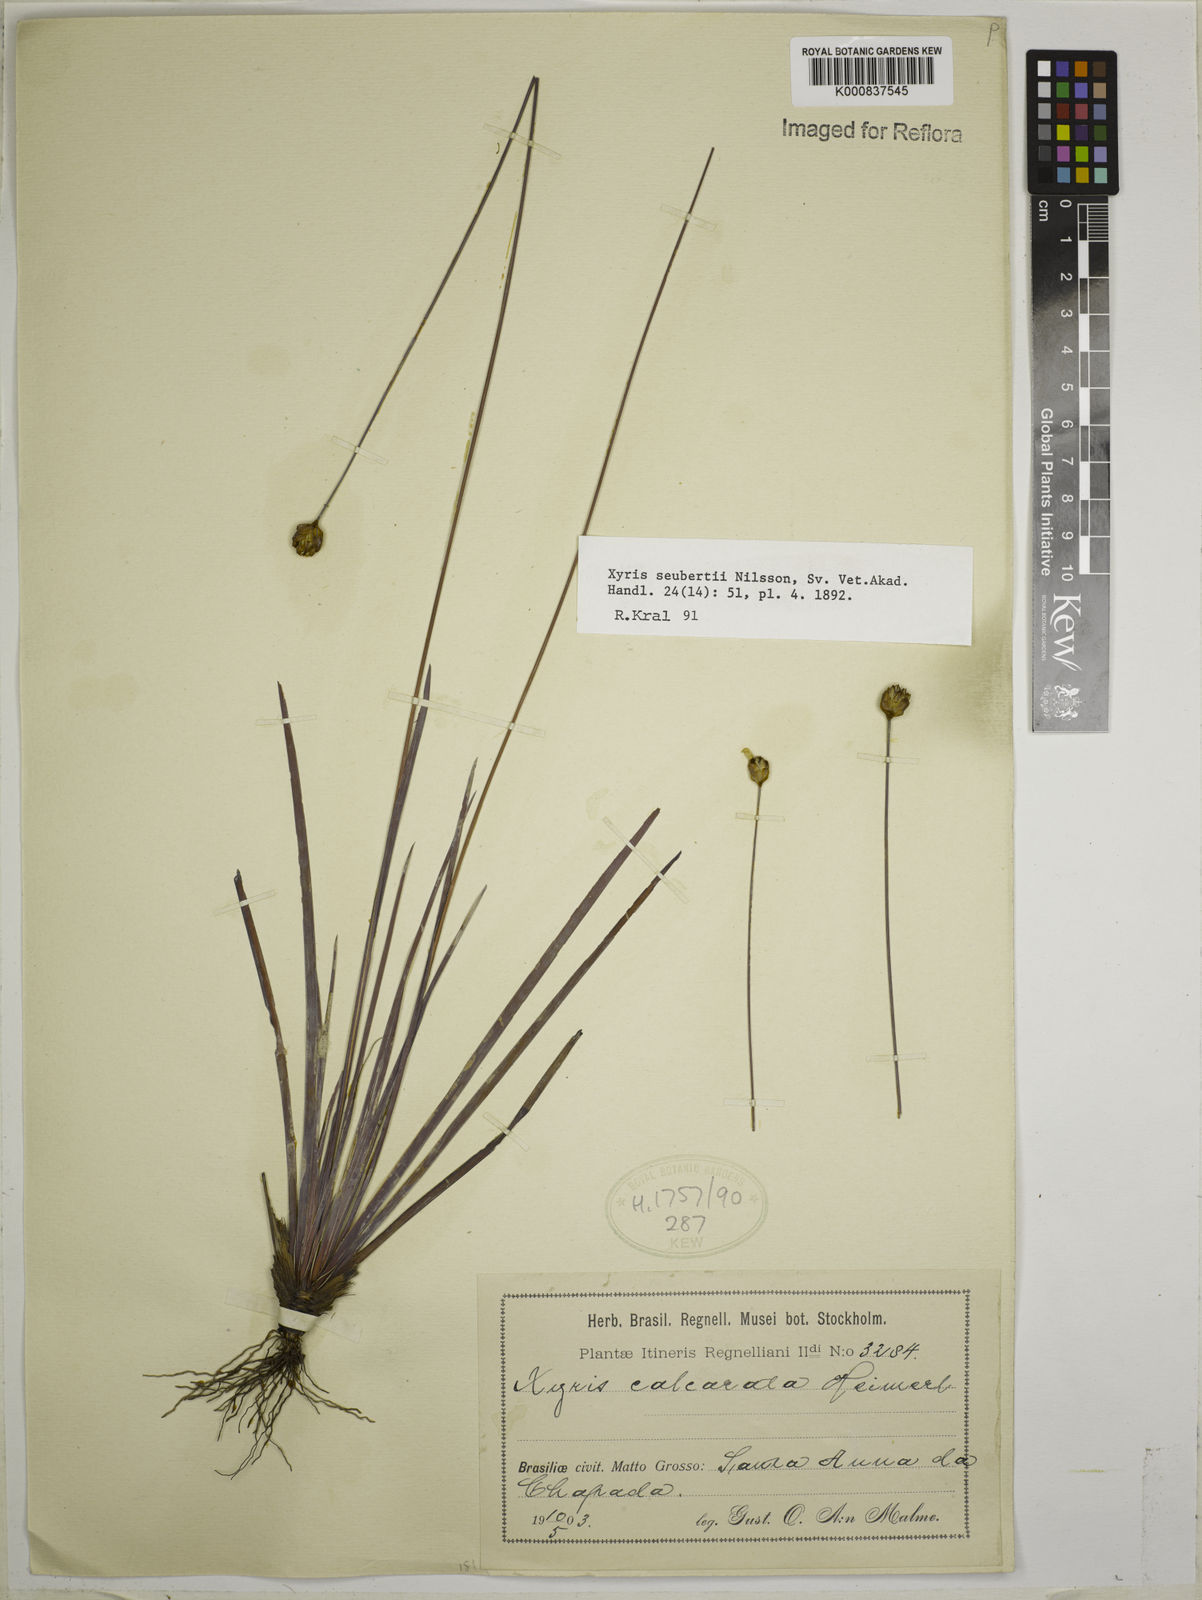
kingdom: Plantae
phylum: Tracheophyta
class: Liliopsida
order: Poales
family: Xyridaceae
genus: Xyris
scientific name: Xyris seubertii
